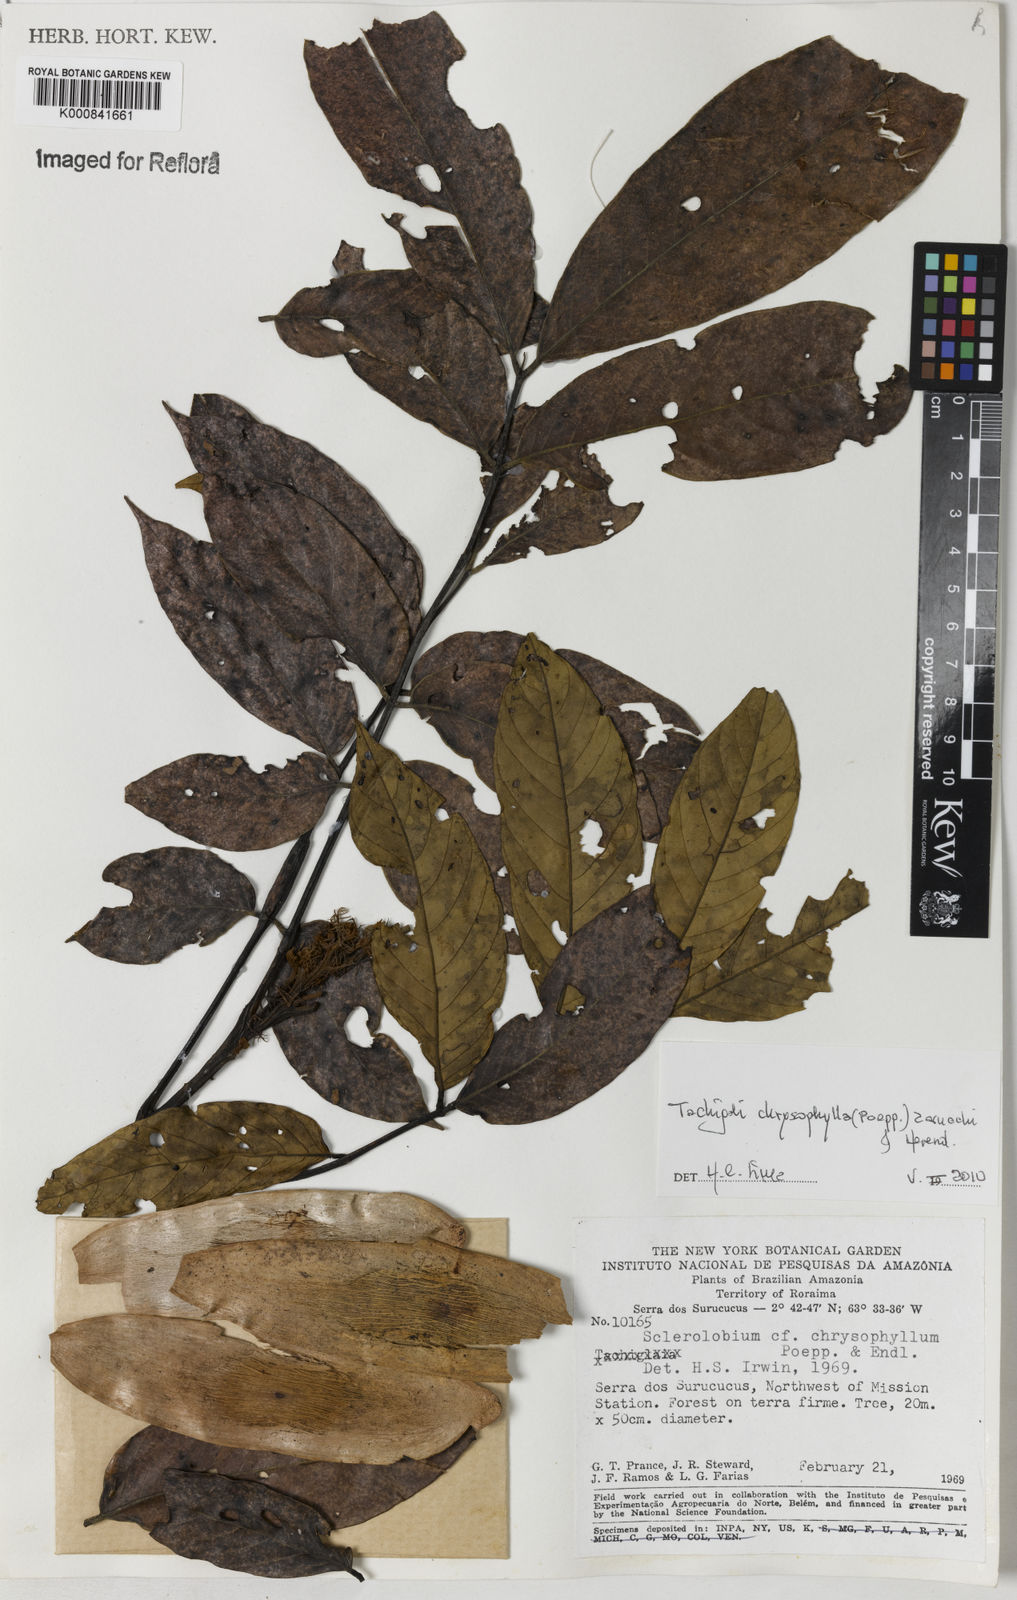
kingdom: Plantae
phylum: Tracheophyta
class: Magnoliopsida
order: Fabales
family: Fabaceae
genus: Tachigali
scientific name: Tachigali chrysophylla
